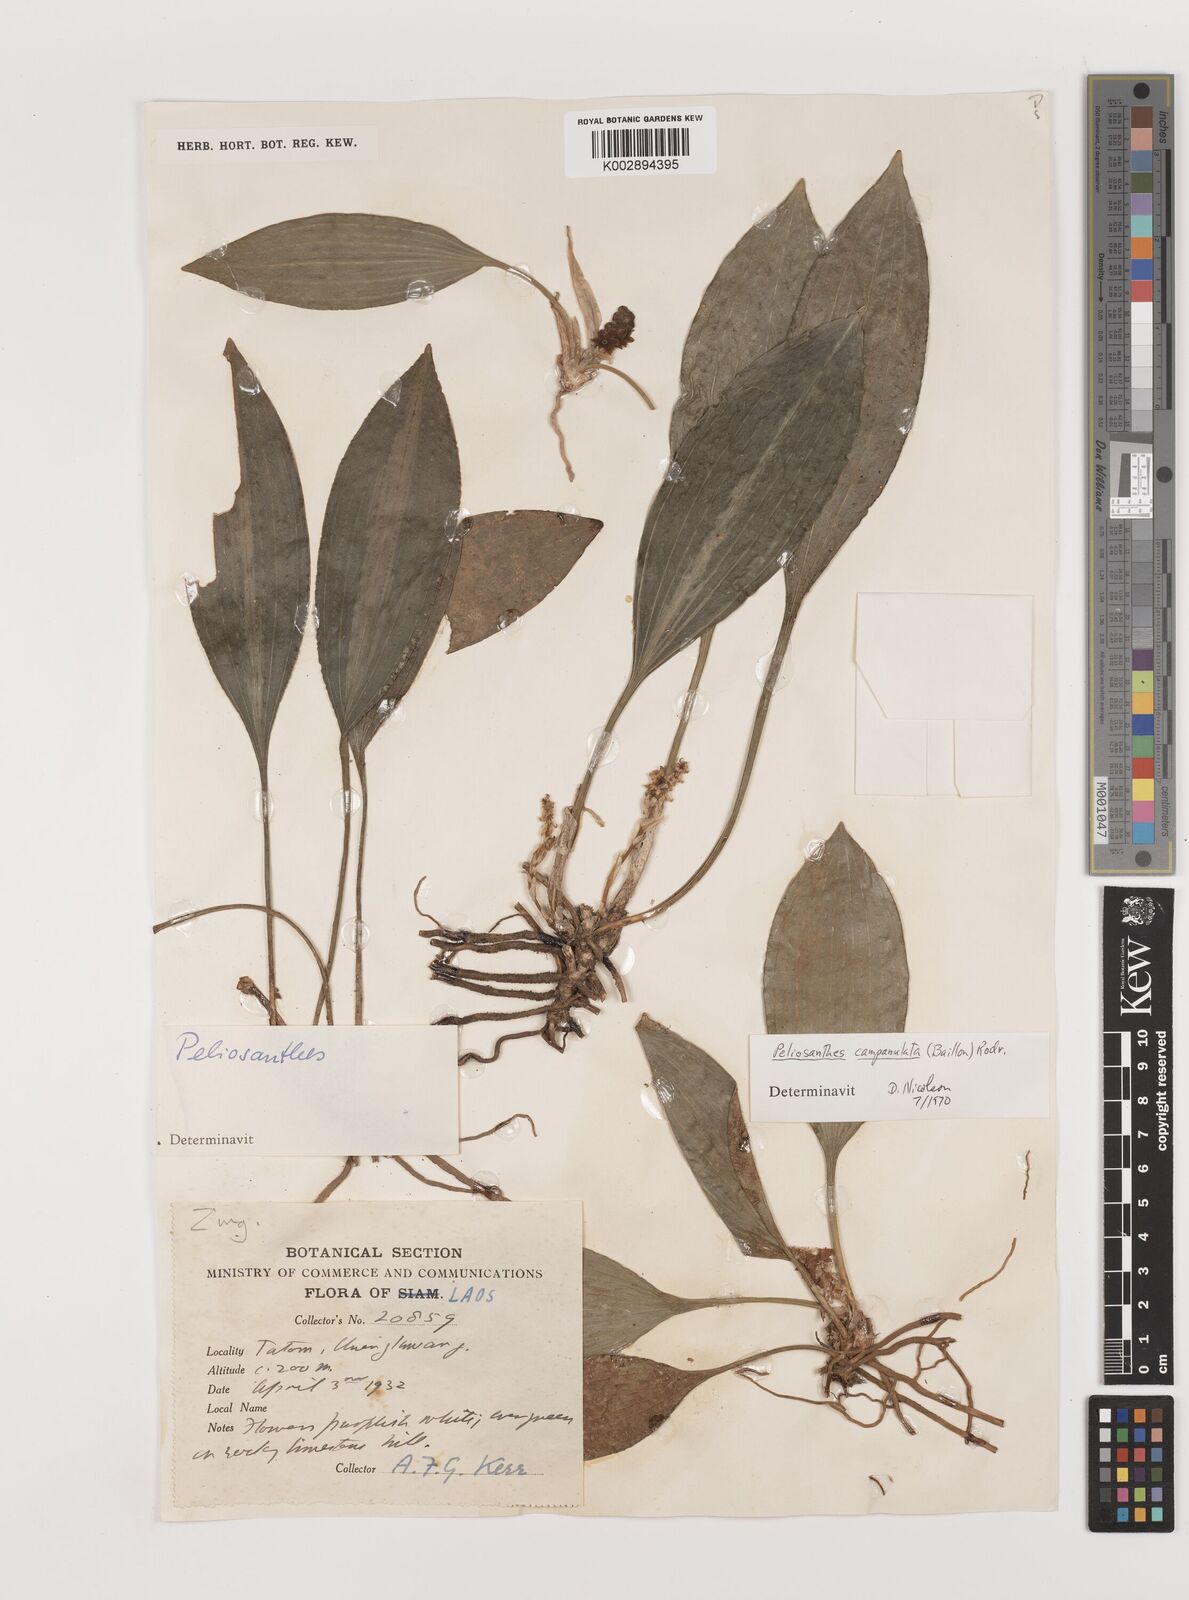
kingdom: Plantae
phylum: Tracheophyta
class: Liliopsida
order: Asparagales
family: Asparagaceae
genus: Peliosanthes
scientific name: Peliosanthes teta
